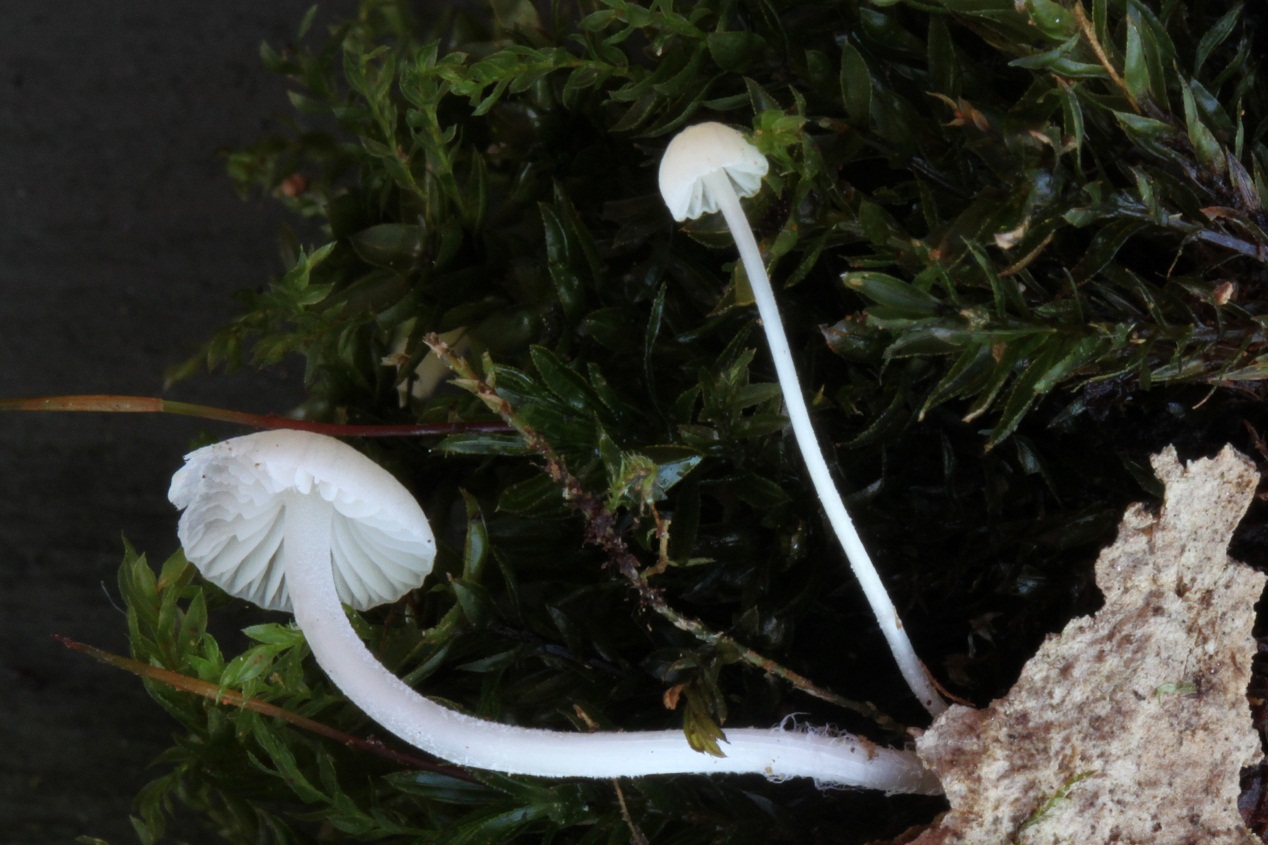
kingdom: Fungi
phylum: Basidiomycota
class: Agaricomycetes
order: Agaricales
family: Porotheleaceae
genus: Phloeomana
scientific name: Phloeomana minutula
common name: bleg huesvamp
